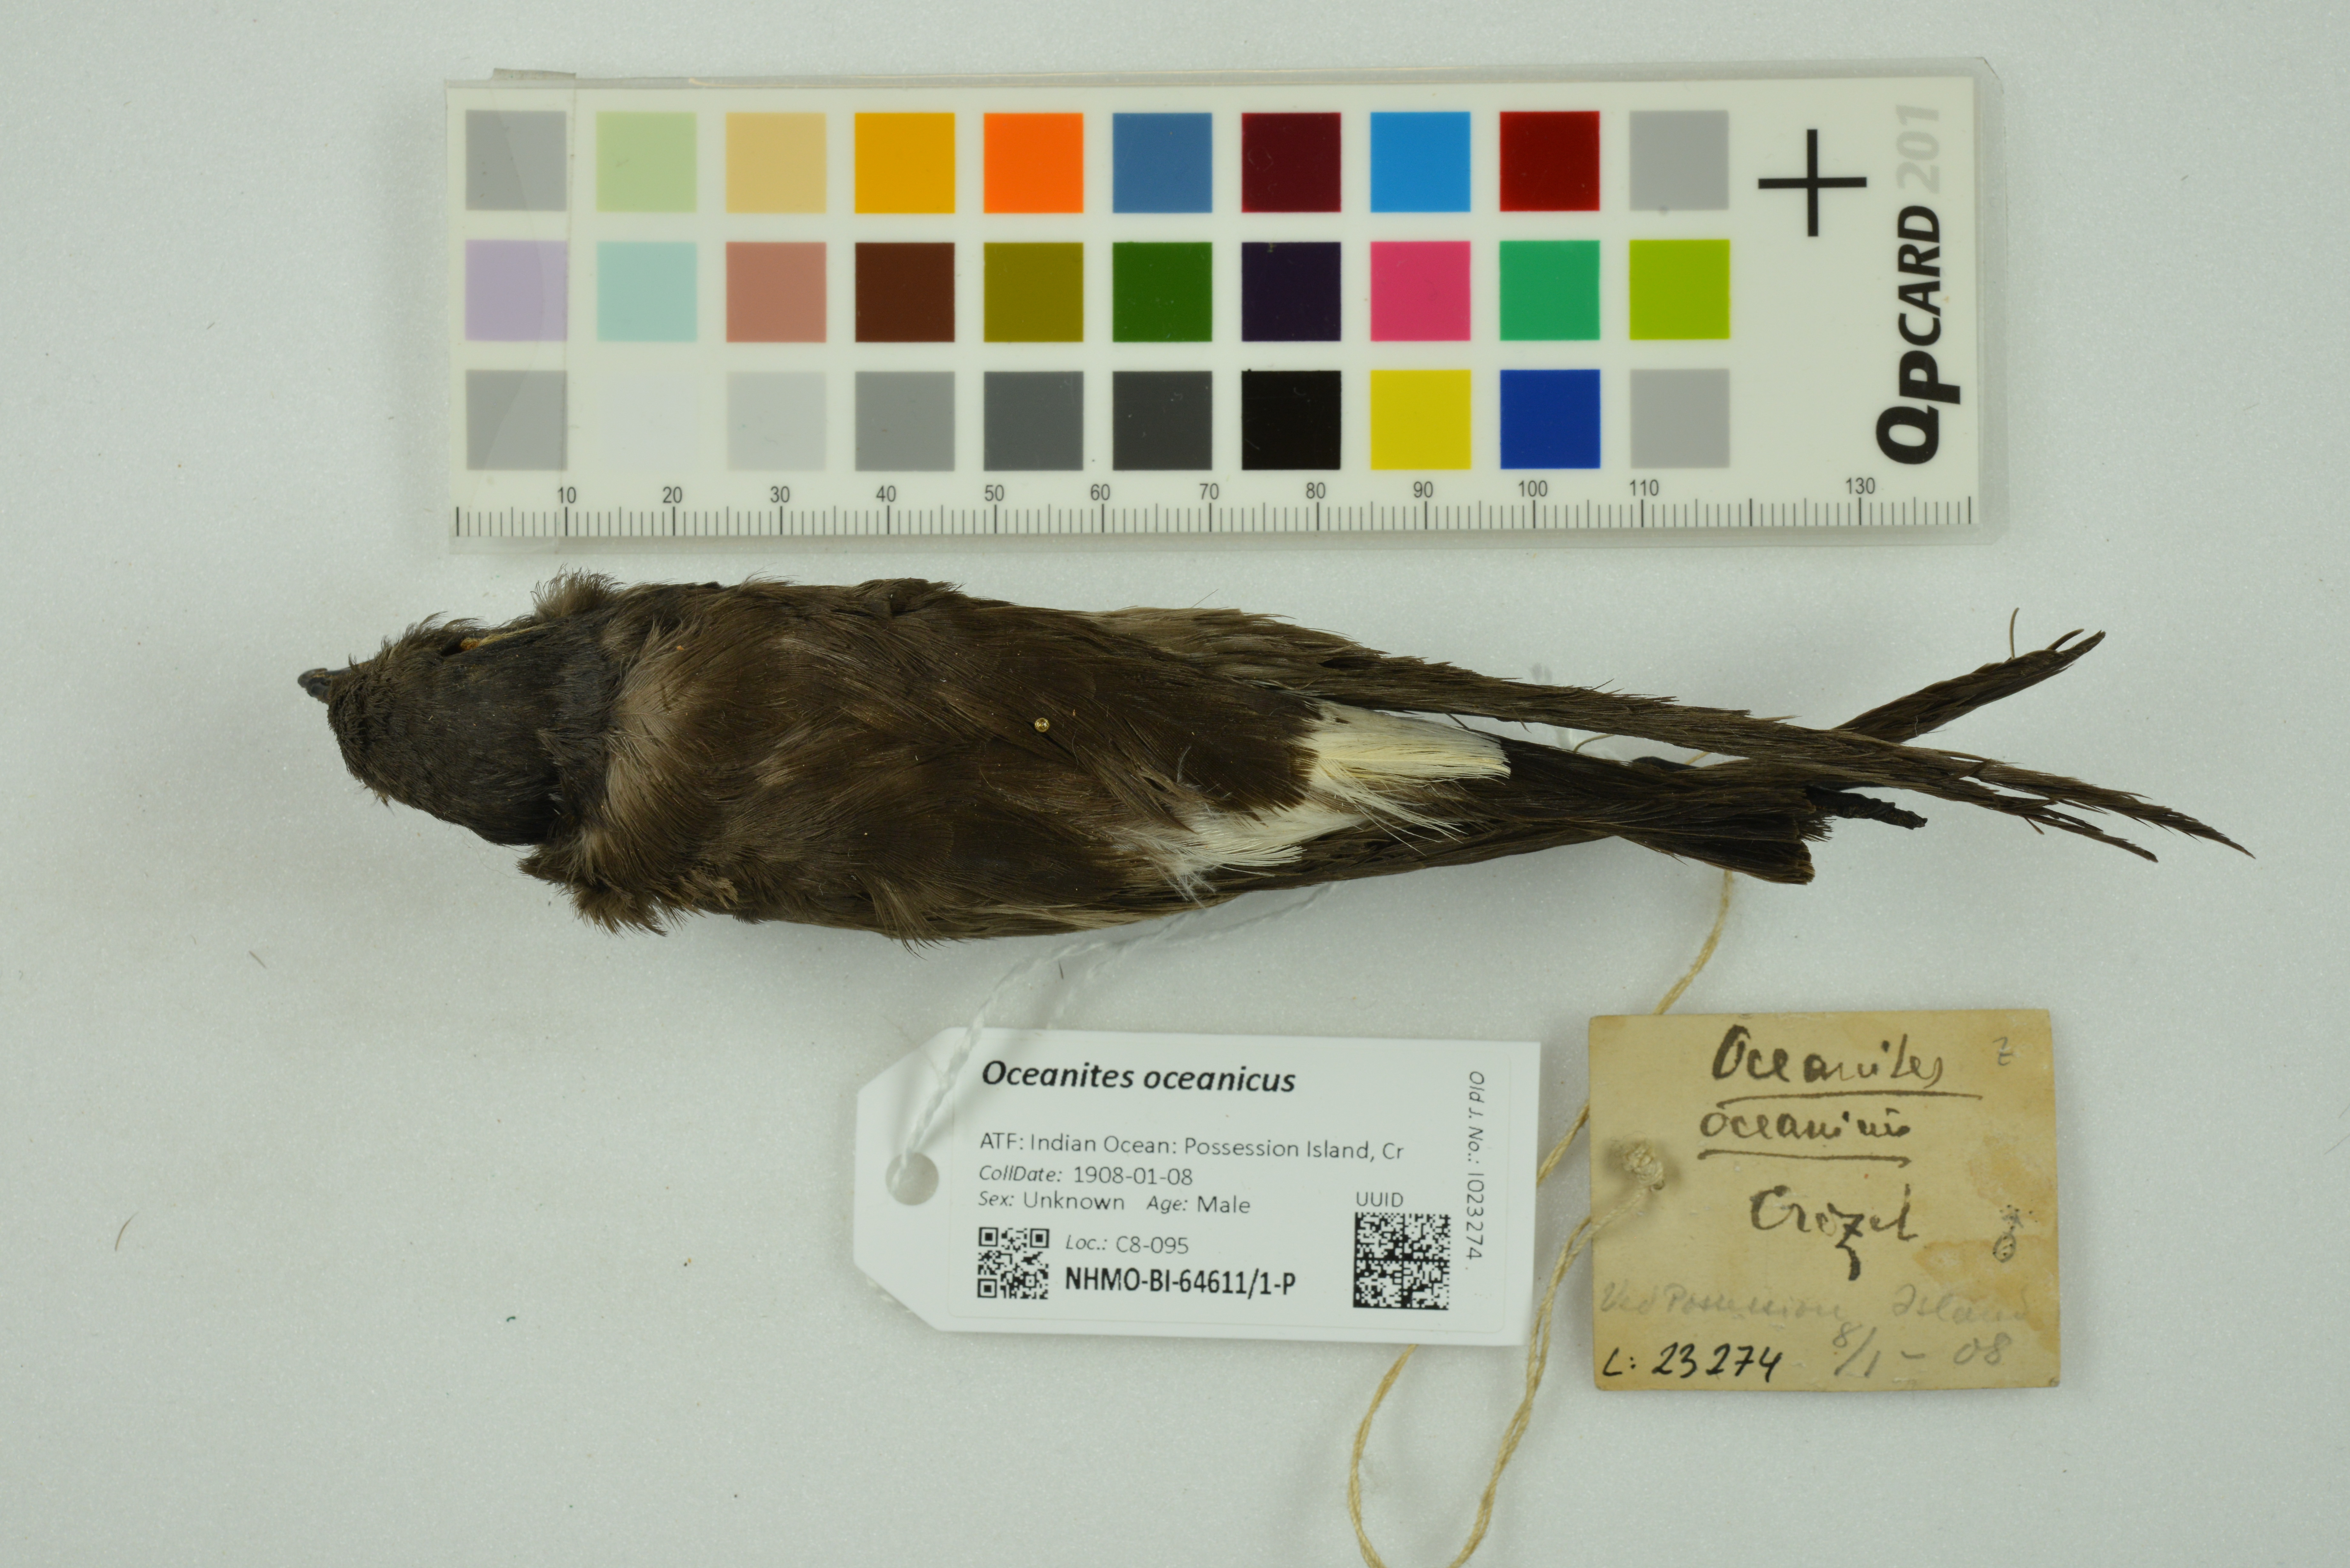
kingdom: Animalia
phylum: Chordata
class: Aves
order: Procellariiformes
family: Hydrobatidae
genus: Oceanites
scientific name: Oceanites oceanicus
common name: Wilson's storm petrel
